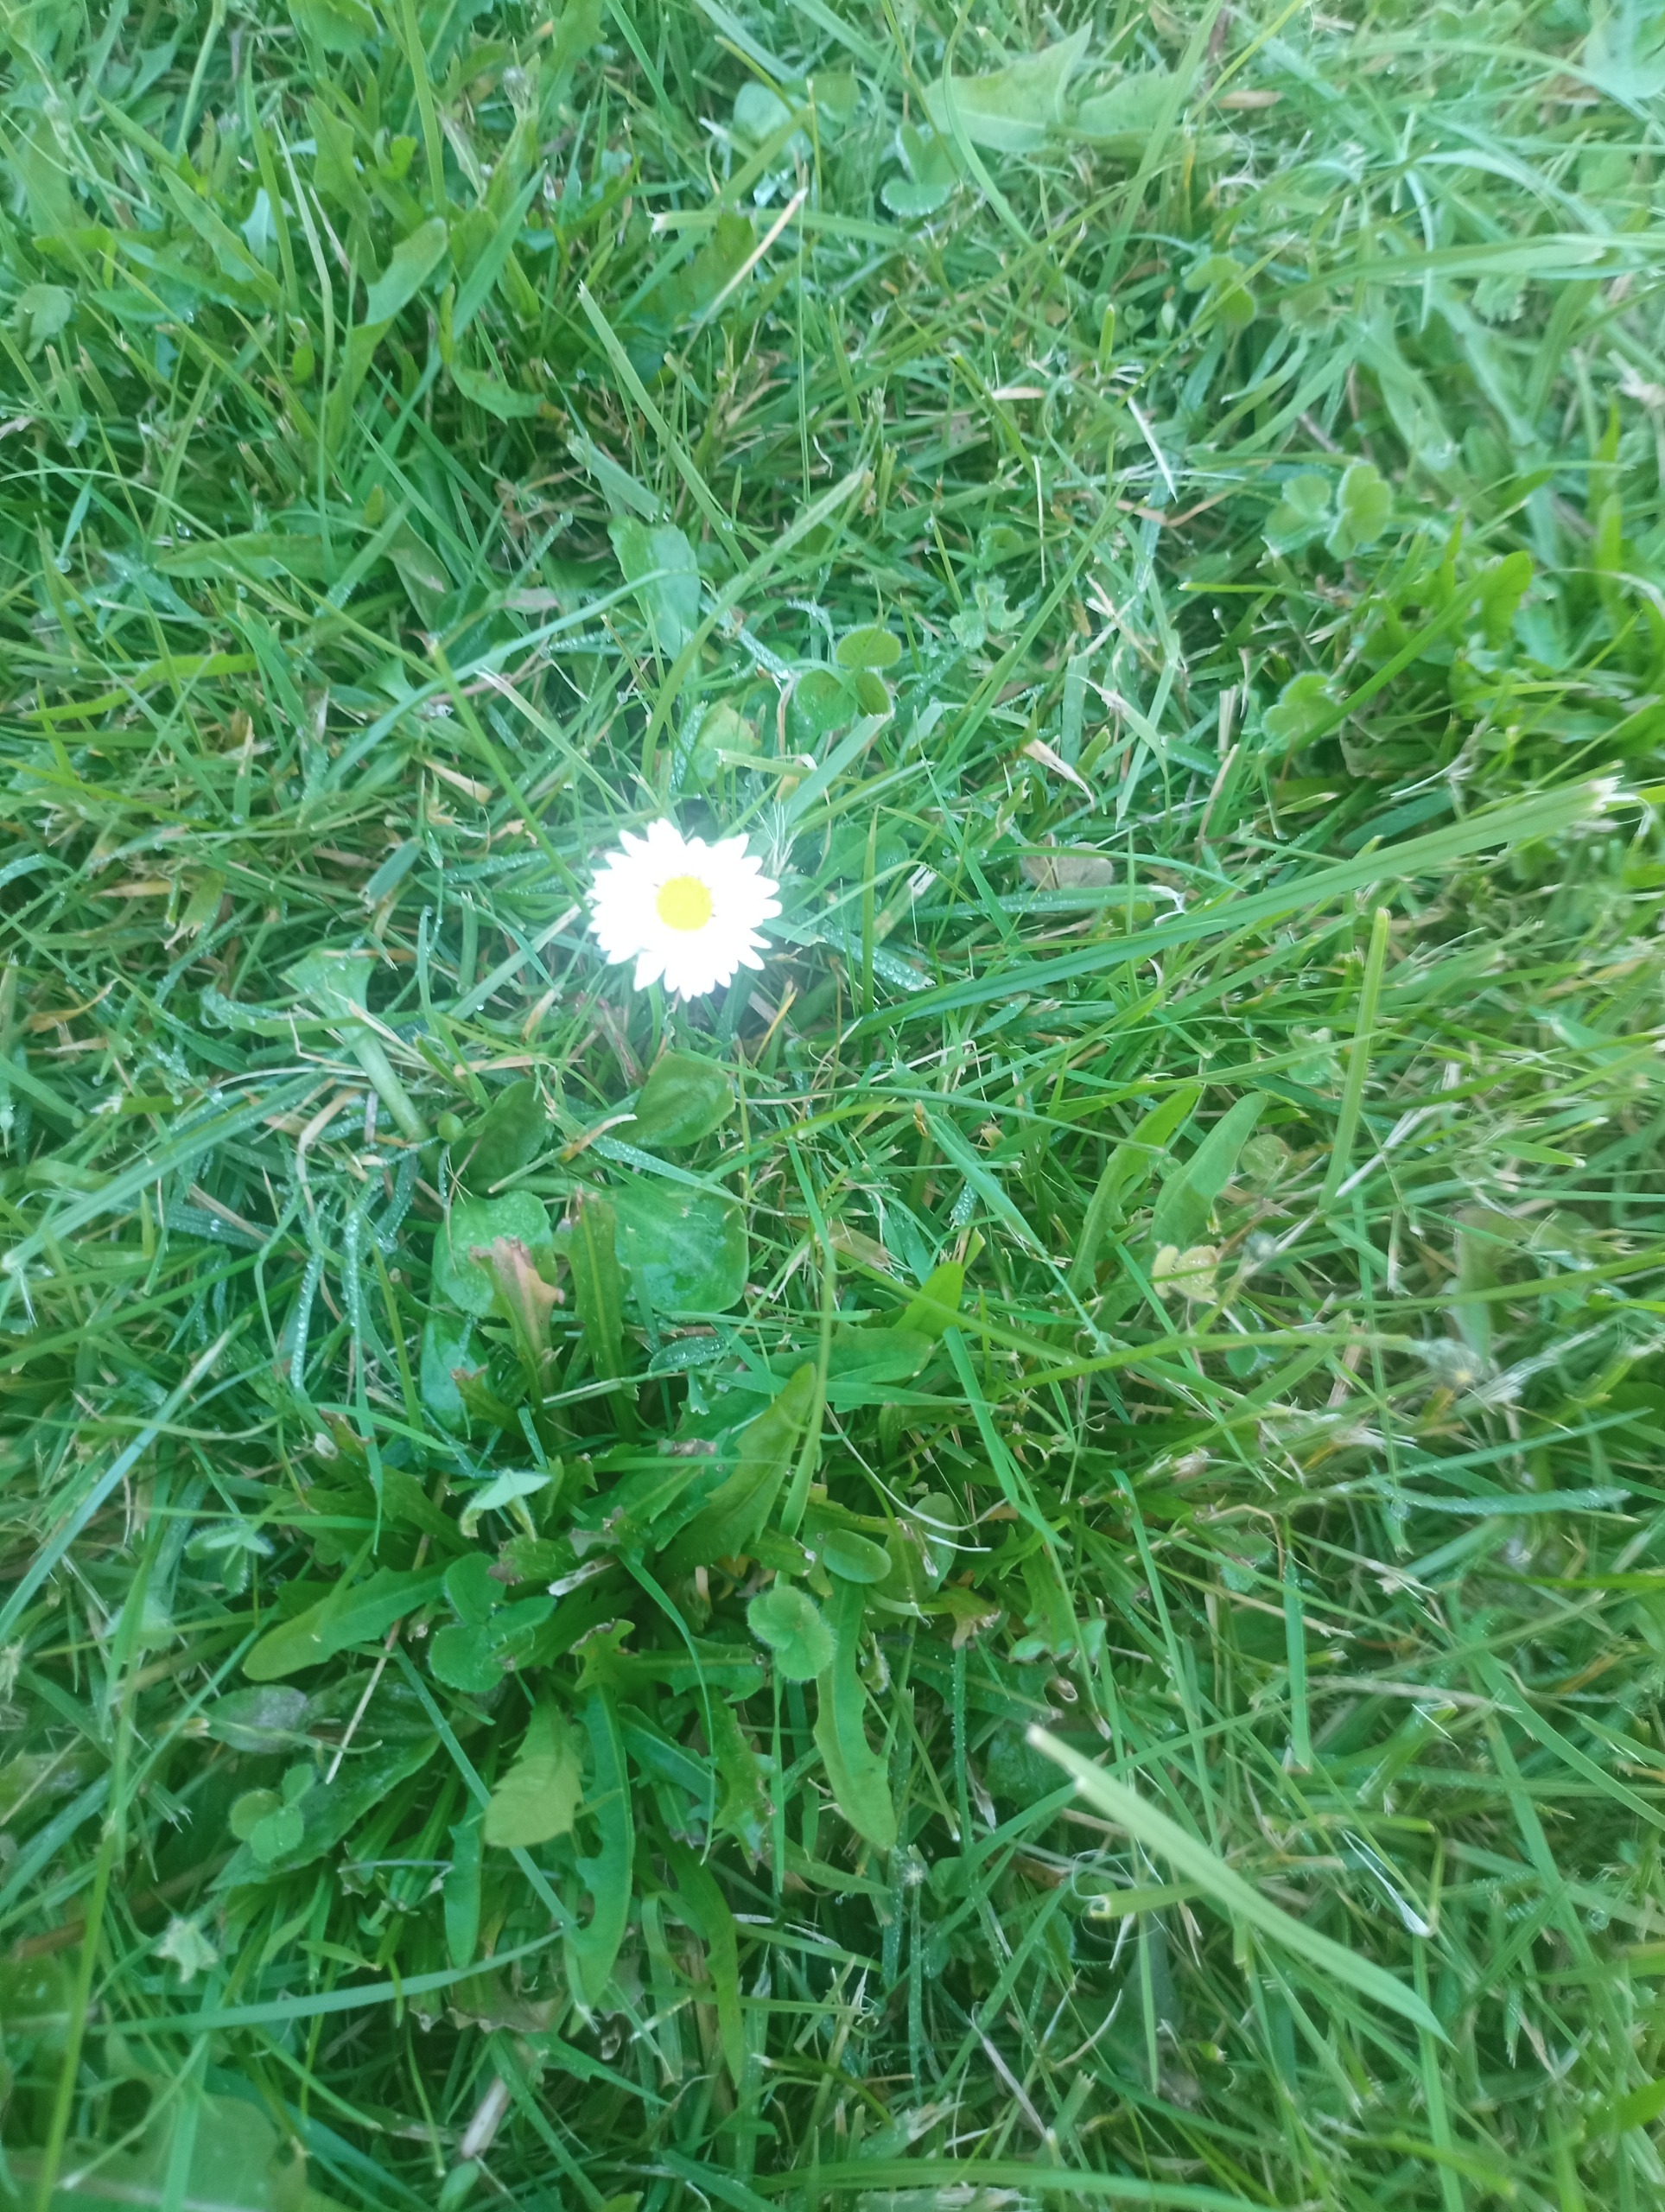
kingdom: Plantae
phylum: Tracheophyta
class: Magnoliopsida
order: Asterales
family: Asteraceae
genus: Bellis
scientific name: Bellis perennis
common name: Tusindfryd
